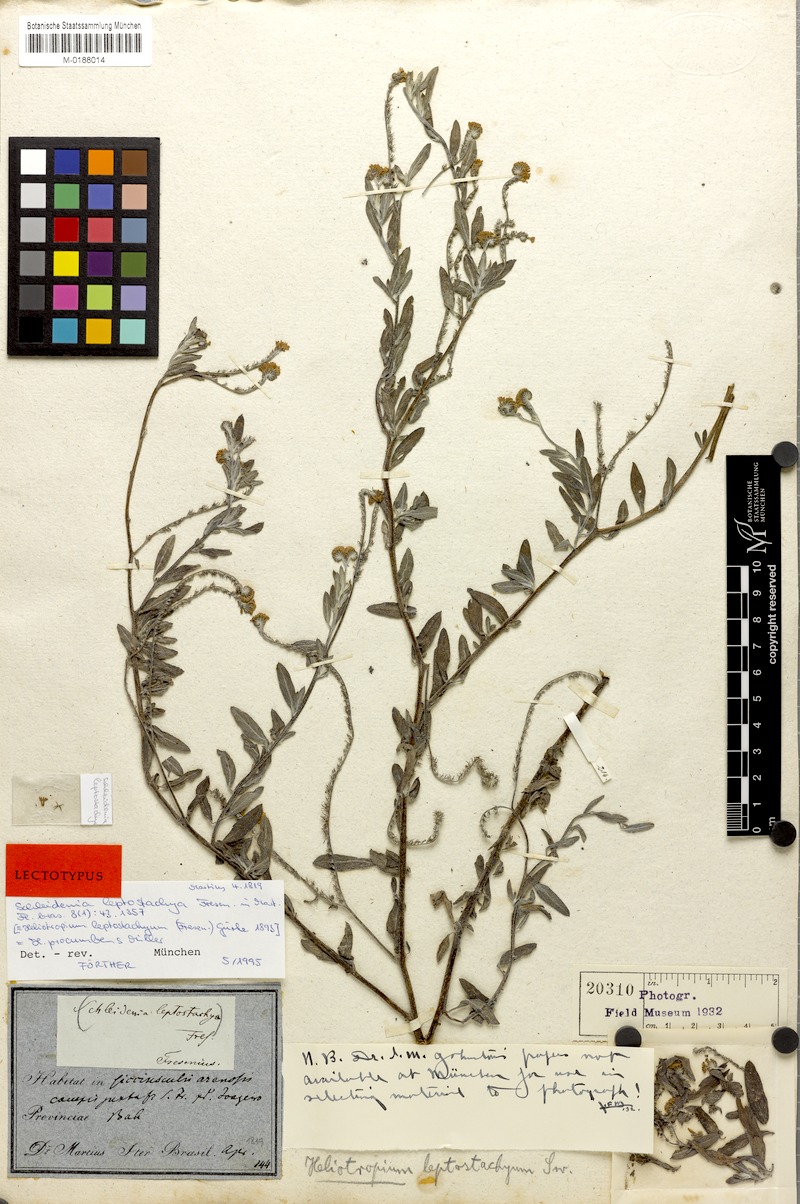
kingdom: Plantae
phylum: Tracheophyta
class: Magnoliopsida
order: Boraginales
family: Heliotropiaceae
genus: Euploca
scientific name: Euploca procumbens
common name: Fourspike heliotrope
